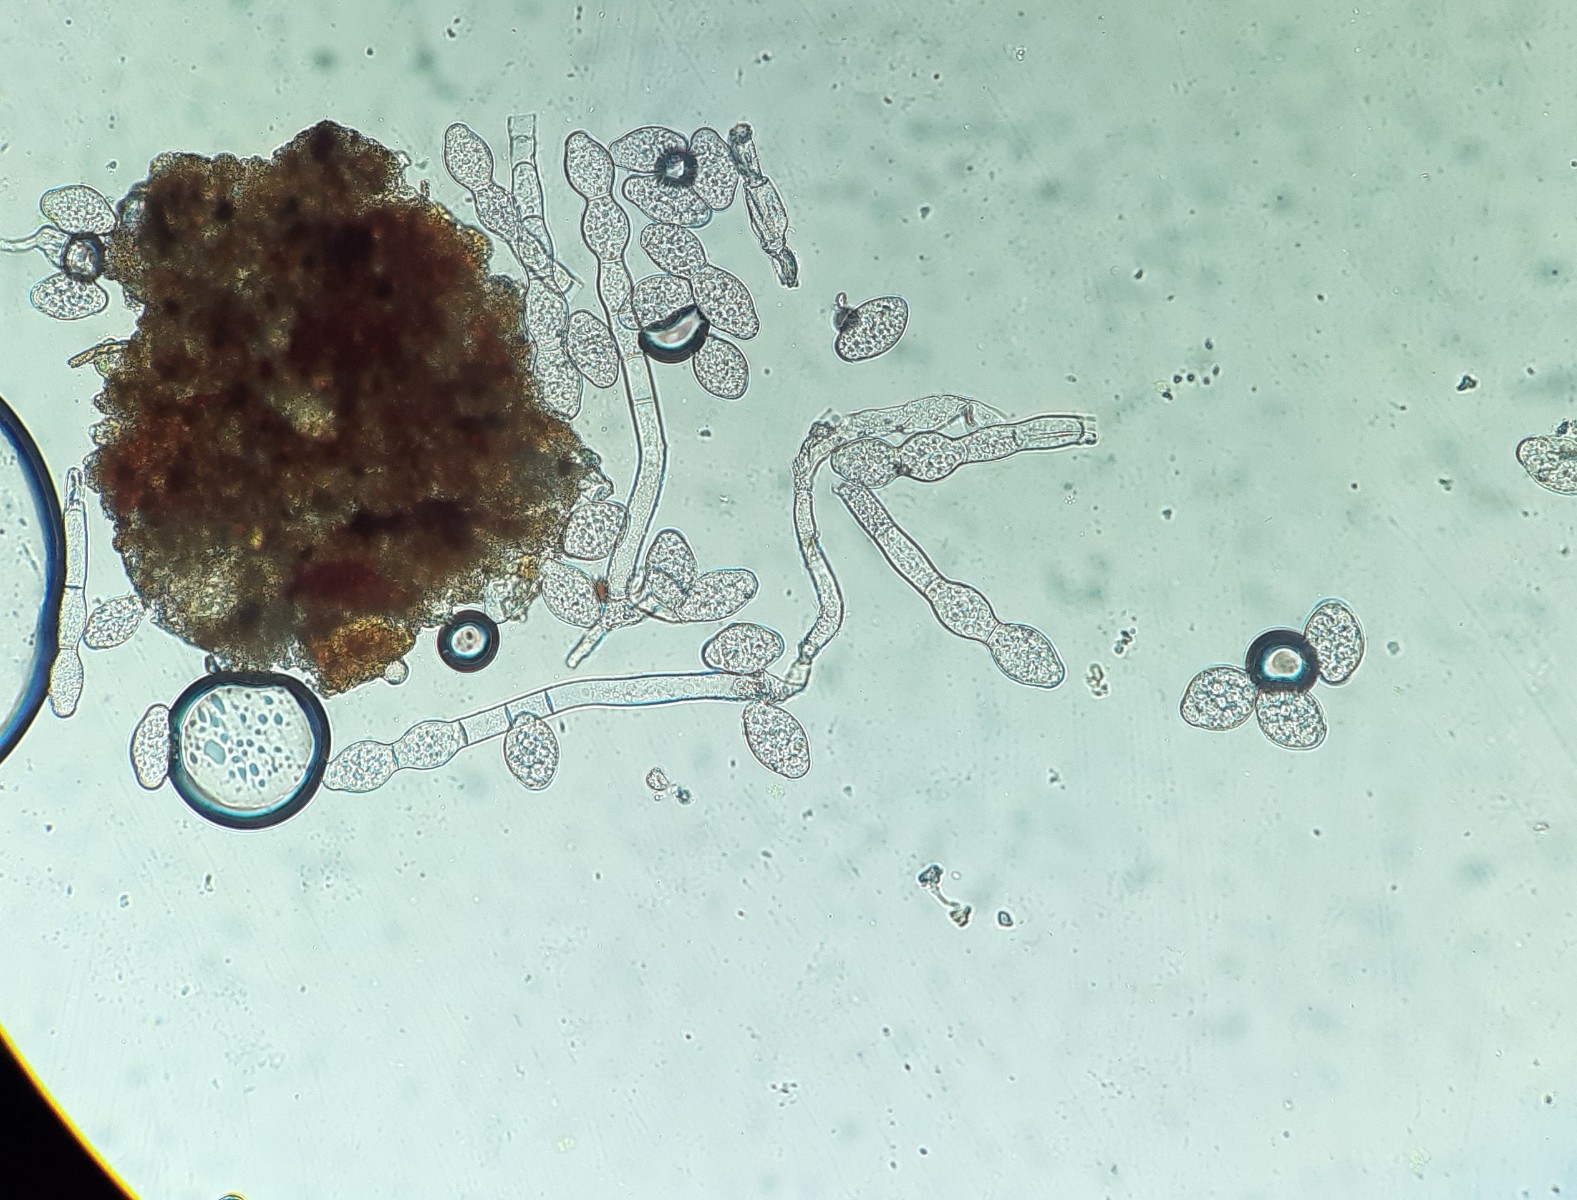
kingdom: Fungi
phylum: Ascomycota
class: Leotiomycetes
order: Helotiales
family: Erysiphaceae
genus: Golovinomyces
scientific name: Golovinomyces verbasci
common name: kongelys-meldug
